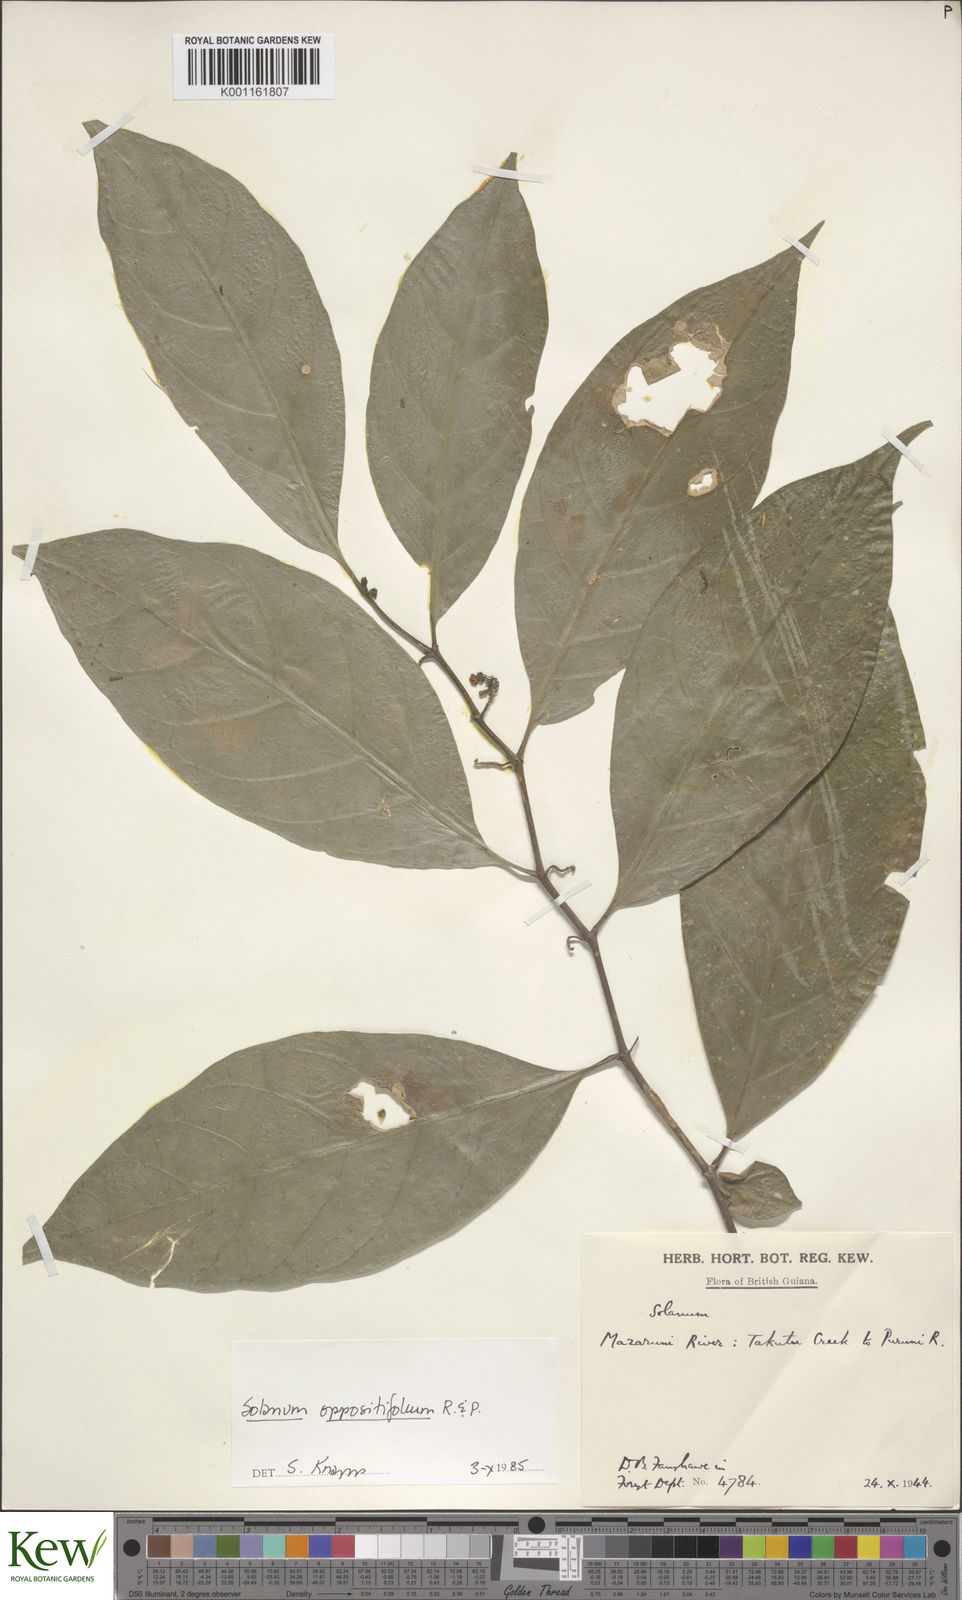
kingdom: Plantae
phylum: Tracheophyta
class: Magnoliopsida
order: Solanales
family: Solanaceae
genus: Solanum
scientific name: Solanum oppositifolium
